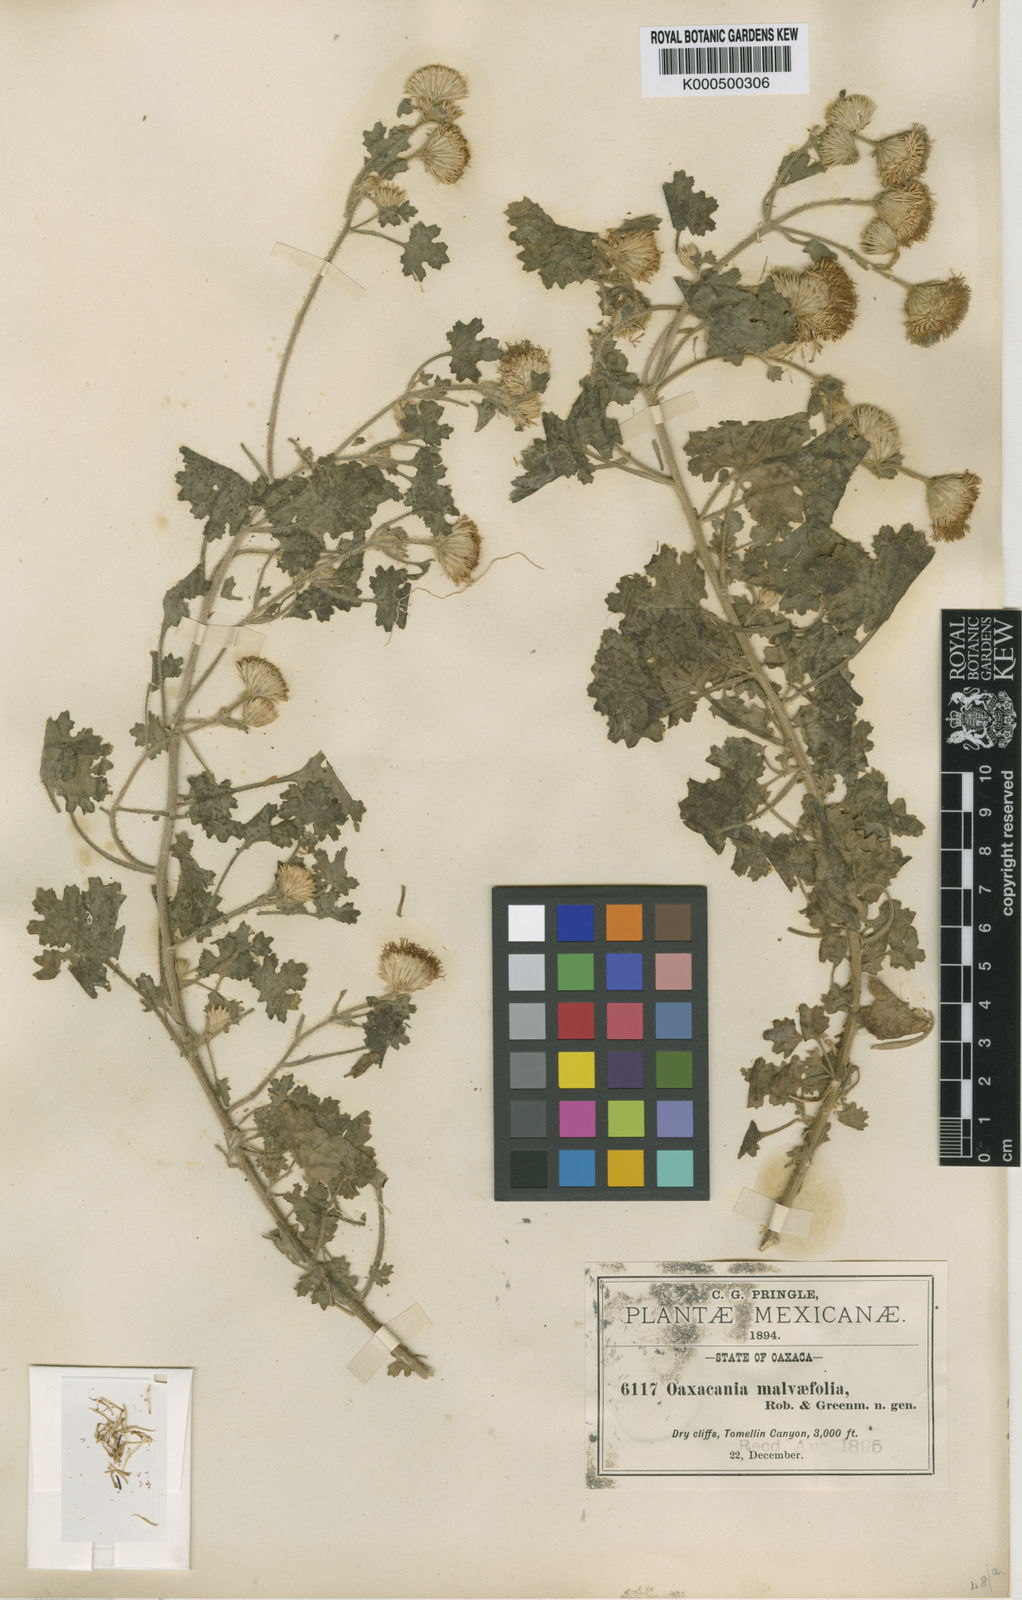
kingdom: Plantae
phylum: Tracheophyta
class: Magnoliopsida
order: Asterales
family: Asteraceae
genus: Oaxacania
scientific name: Oaxacania malvifolia
